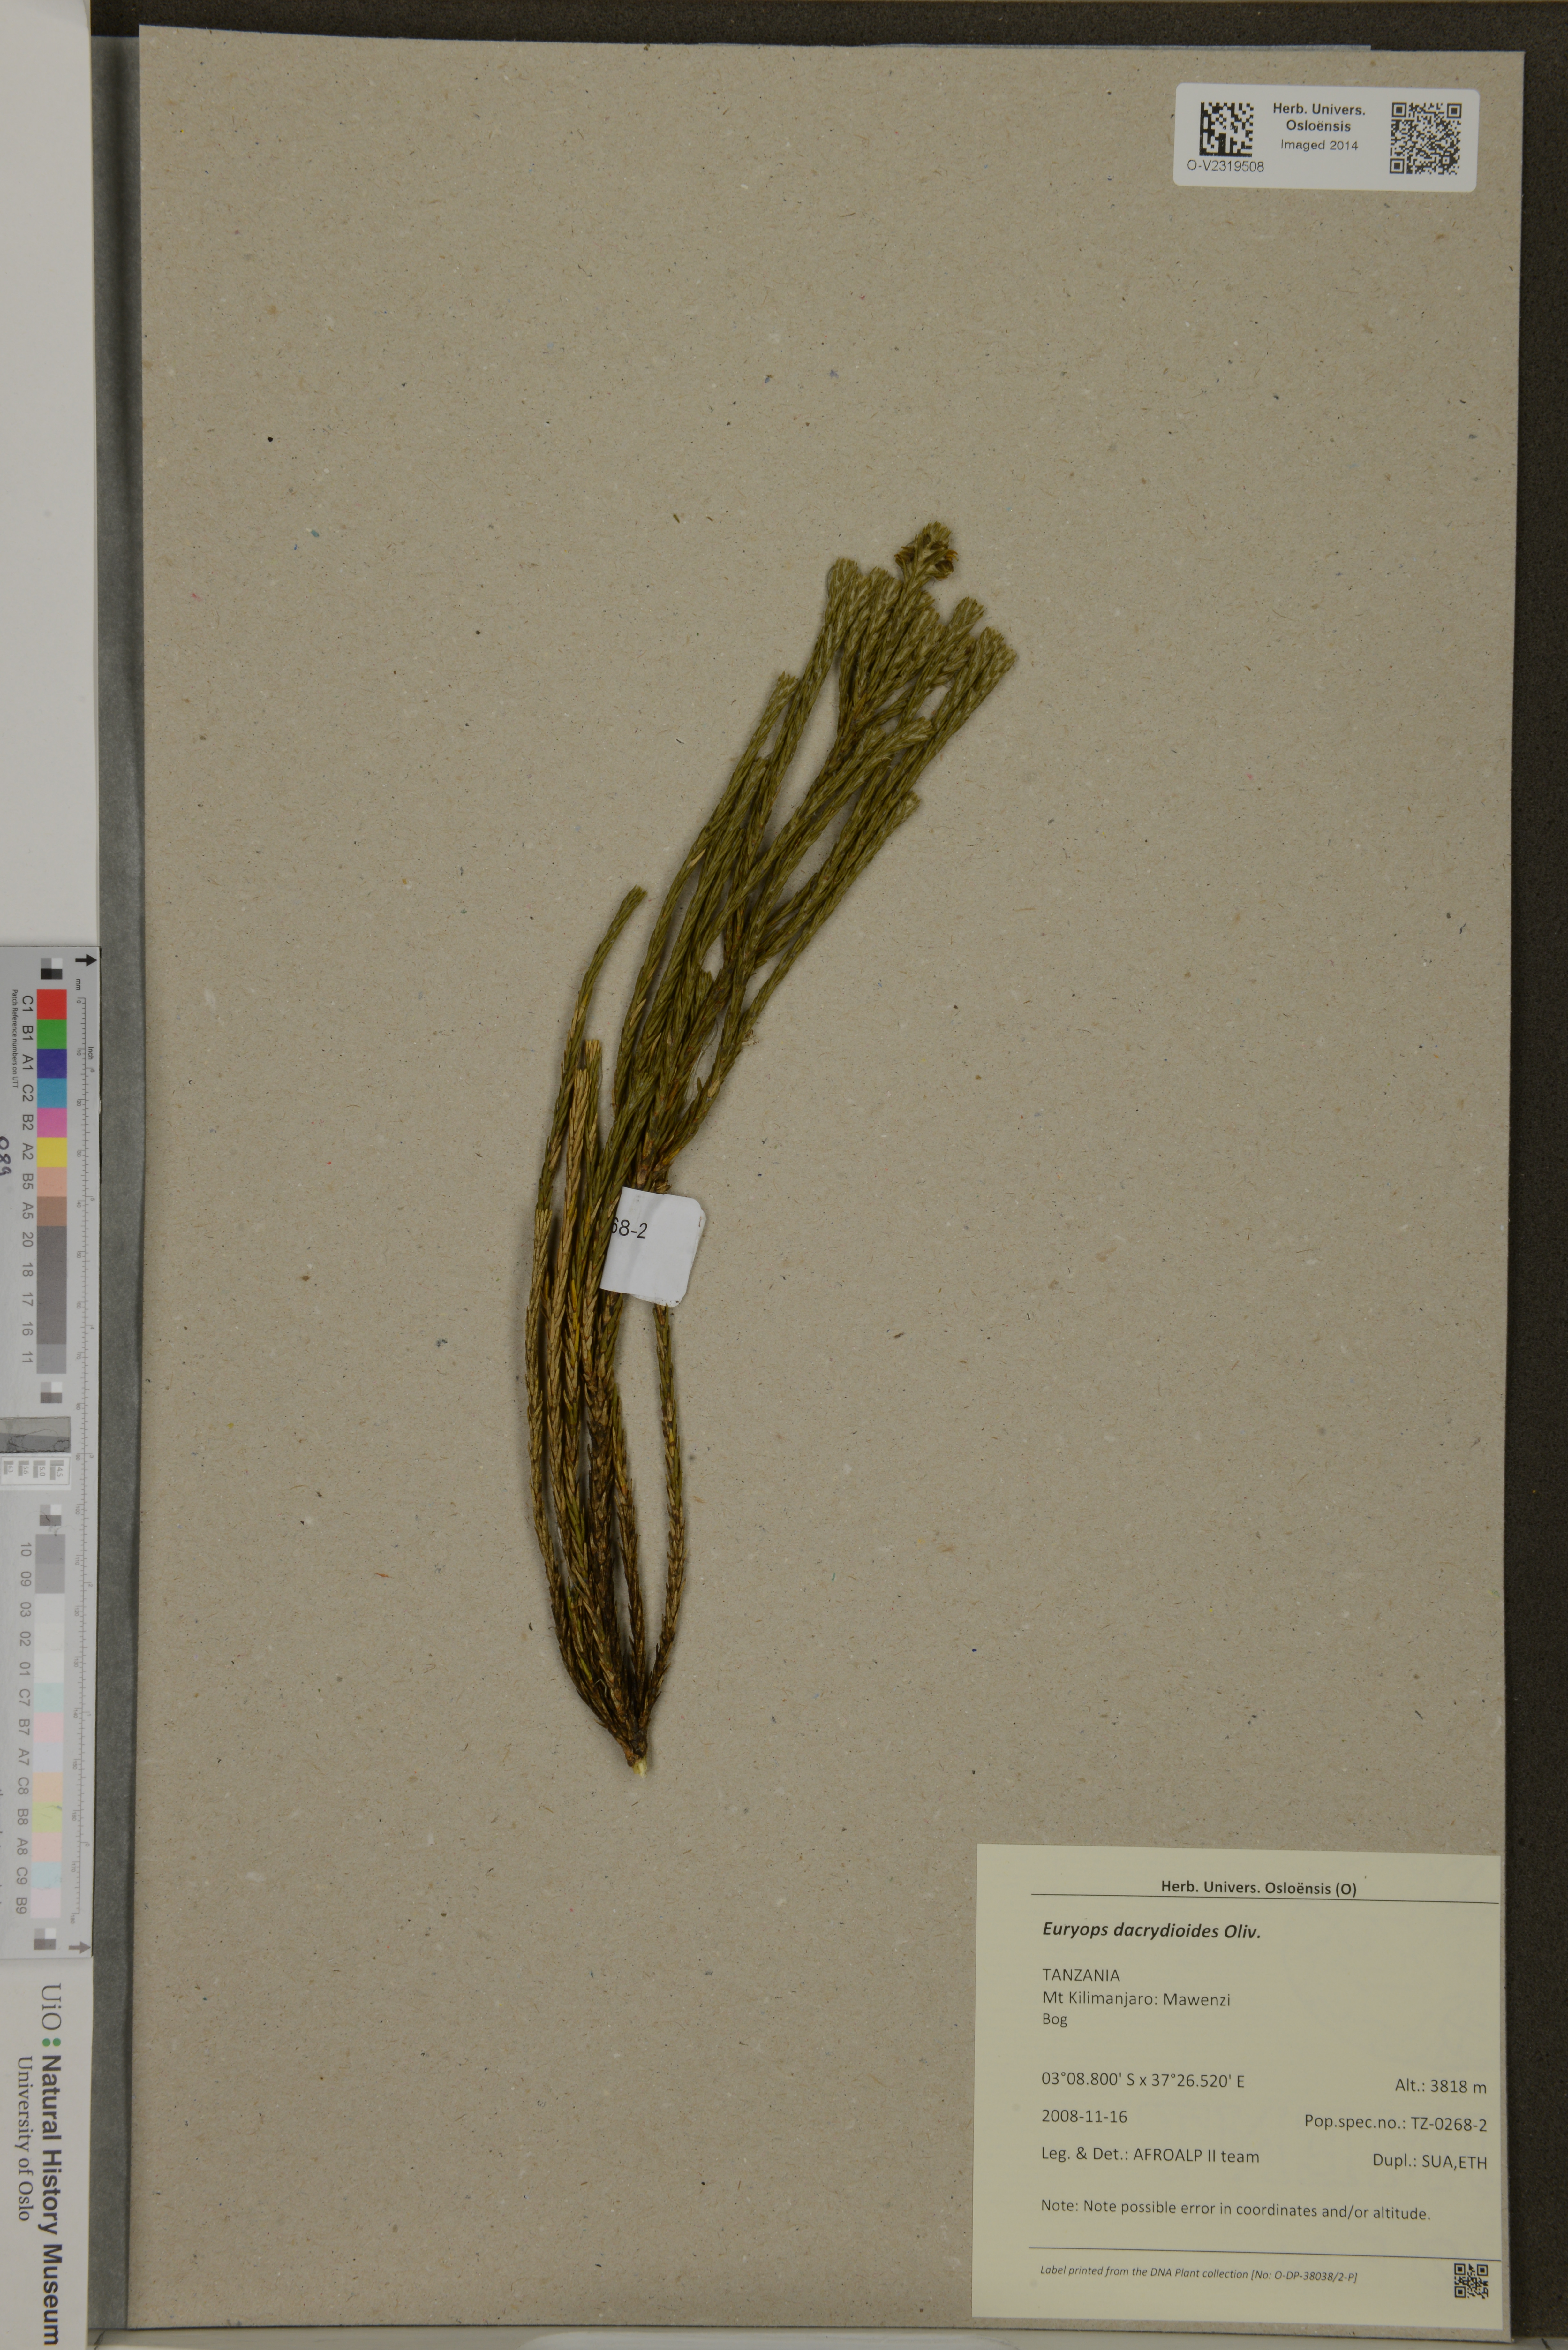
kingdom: Plantae
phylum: Tracheophyta
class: Magnoliopsida
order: Asterales
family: Asteraceae
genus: Euryops
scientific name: Euryops dacrydioides
